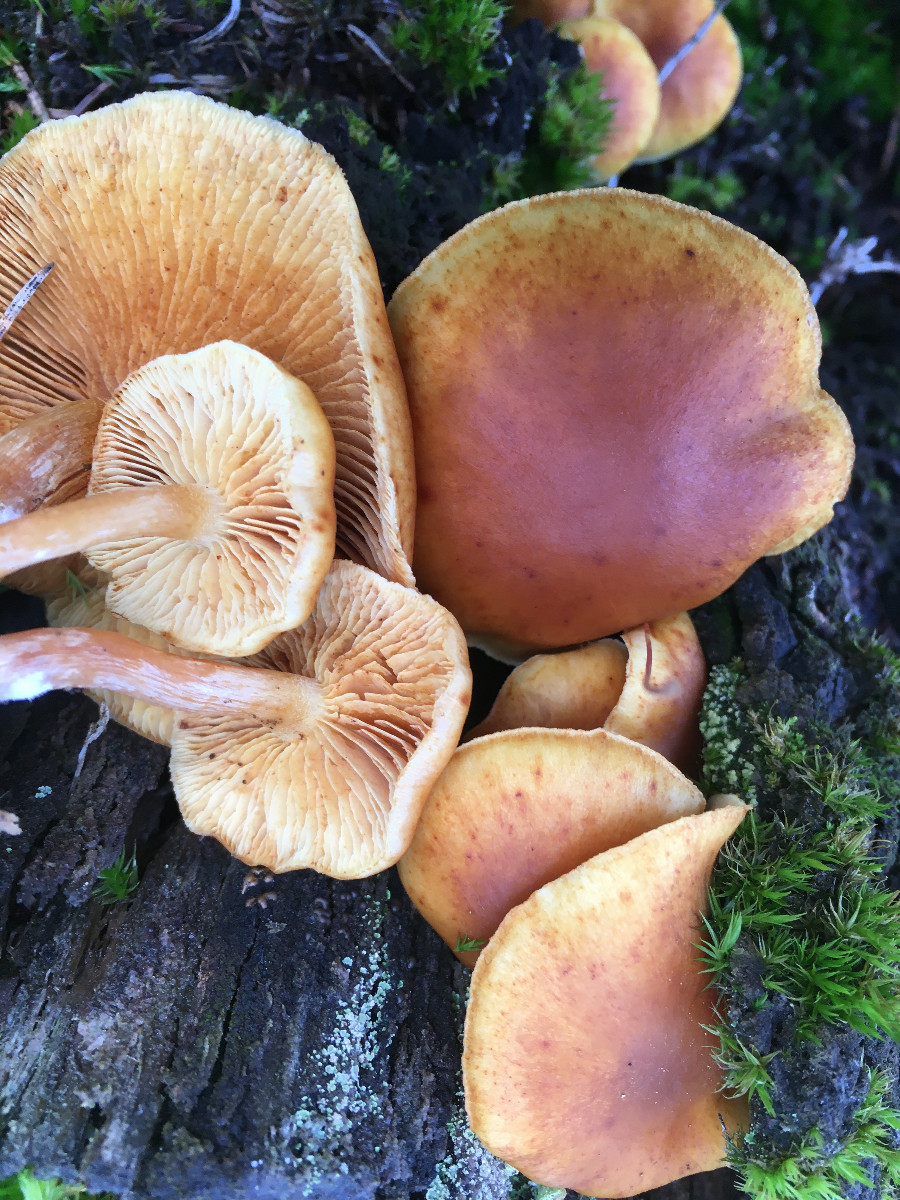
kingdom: Fungi
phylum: Basidiomycota
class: Agaricomycetes
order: Agaricales
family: Hymenogastraceae
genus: Gymnopilus
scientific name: Gymnopilus penetrans
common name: plettet flammehat
